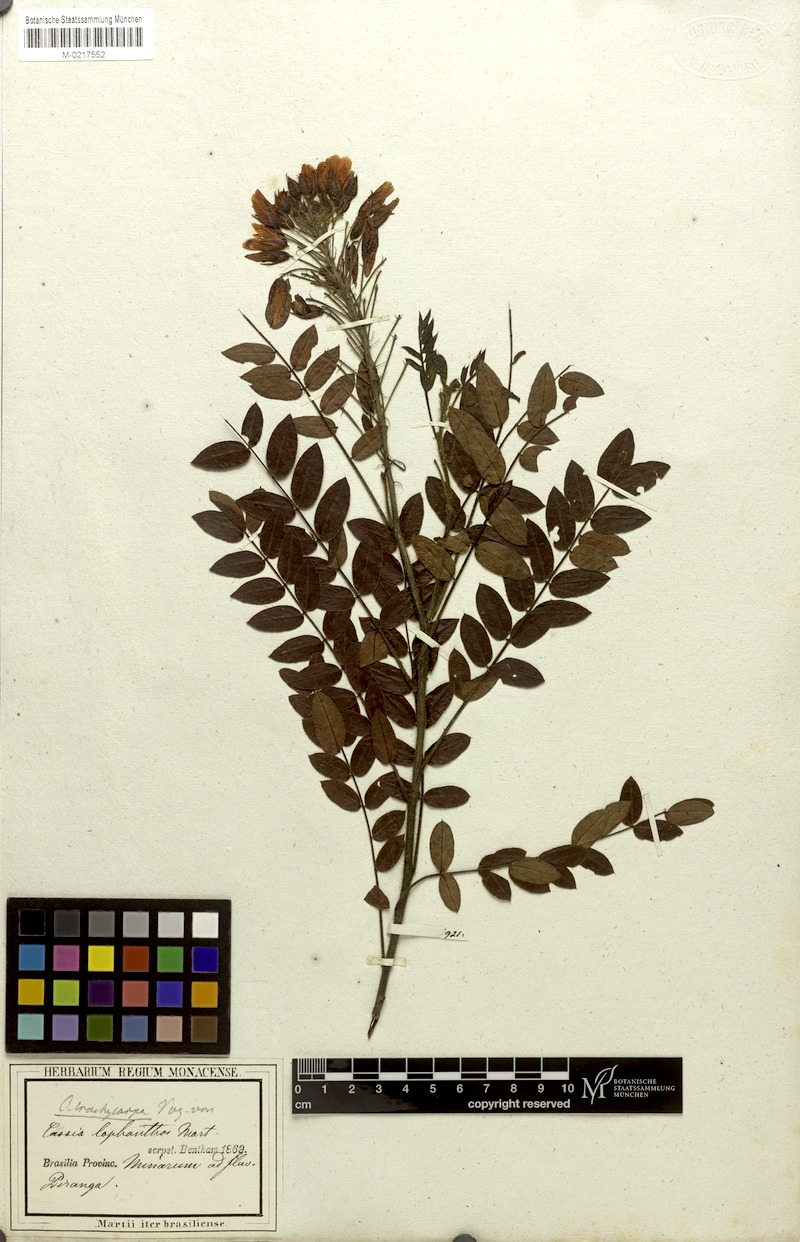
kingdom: Plantae
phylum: Tracheophyta
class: Magnoliopsida
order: Fabales
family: Fabaceae
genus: Chamaecrista
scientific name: Chamaecrista trachycarpa
